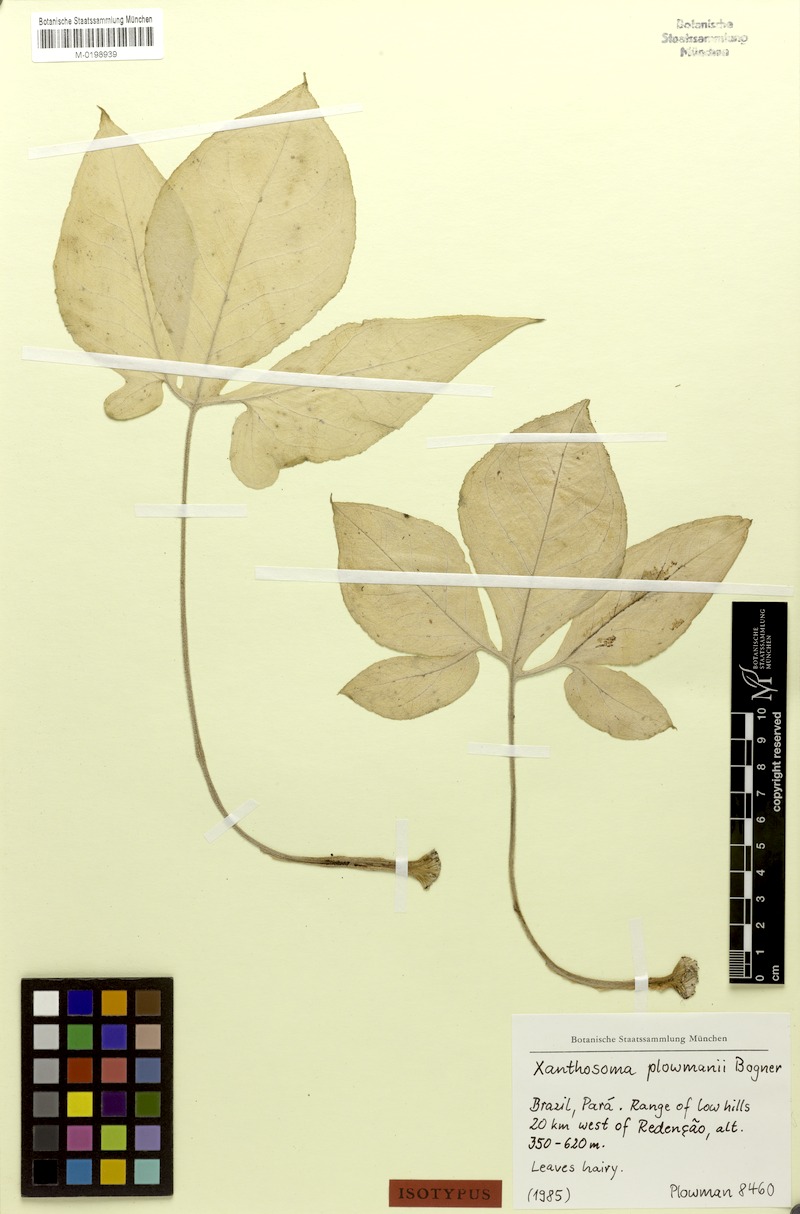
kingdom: Plantae
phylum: Tracheophyta
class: Liliopsida
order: Alismatales
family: Araceae
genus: Xanthosoma
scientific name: Xanthosoma plowmanii
